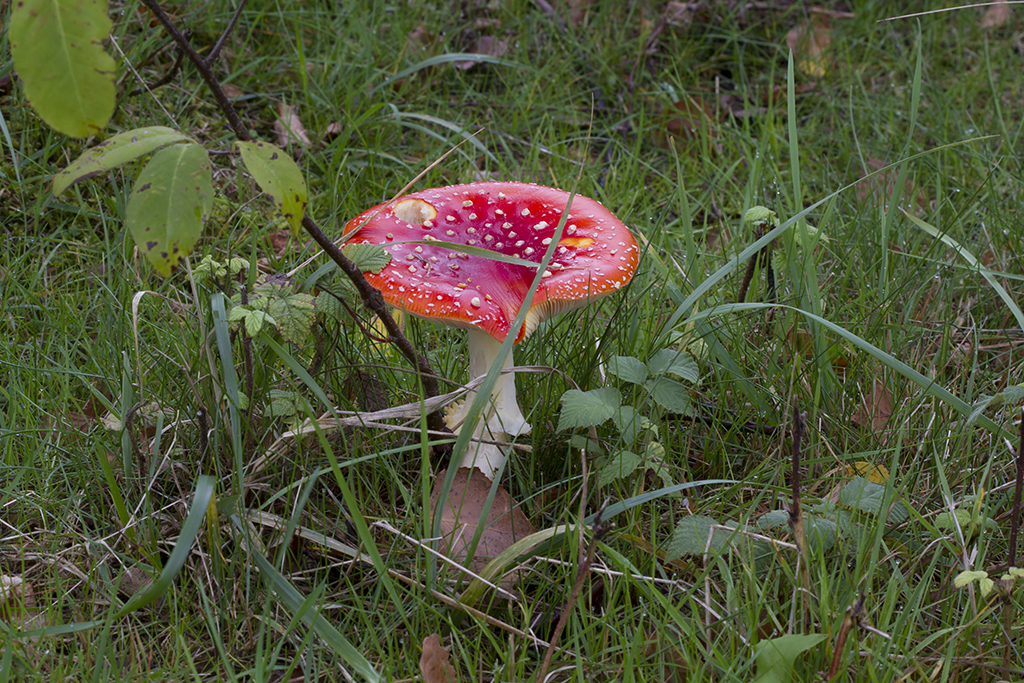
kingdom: Fungi
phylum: Basidiomycota
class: Agaricomycetes
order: Agaricales
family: Amanitaceae
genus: Amanita
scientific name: Amanita muscaria
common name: rød fluesvamp
